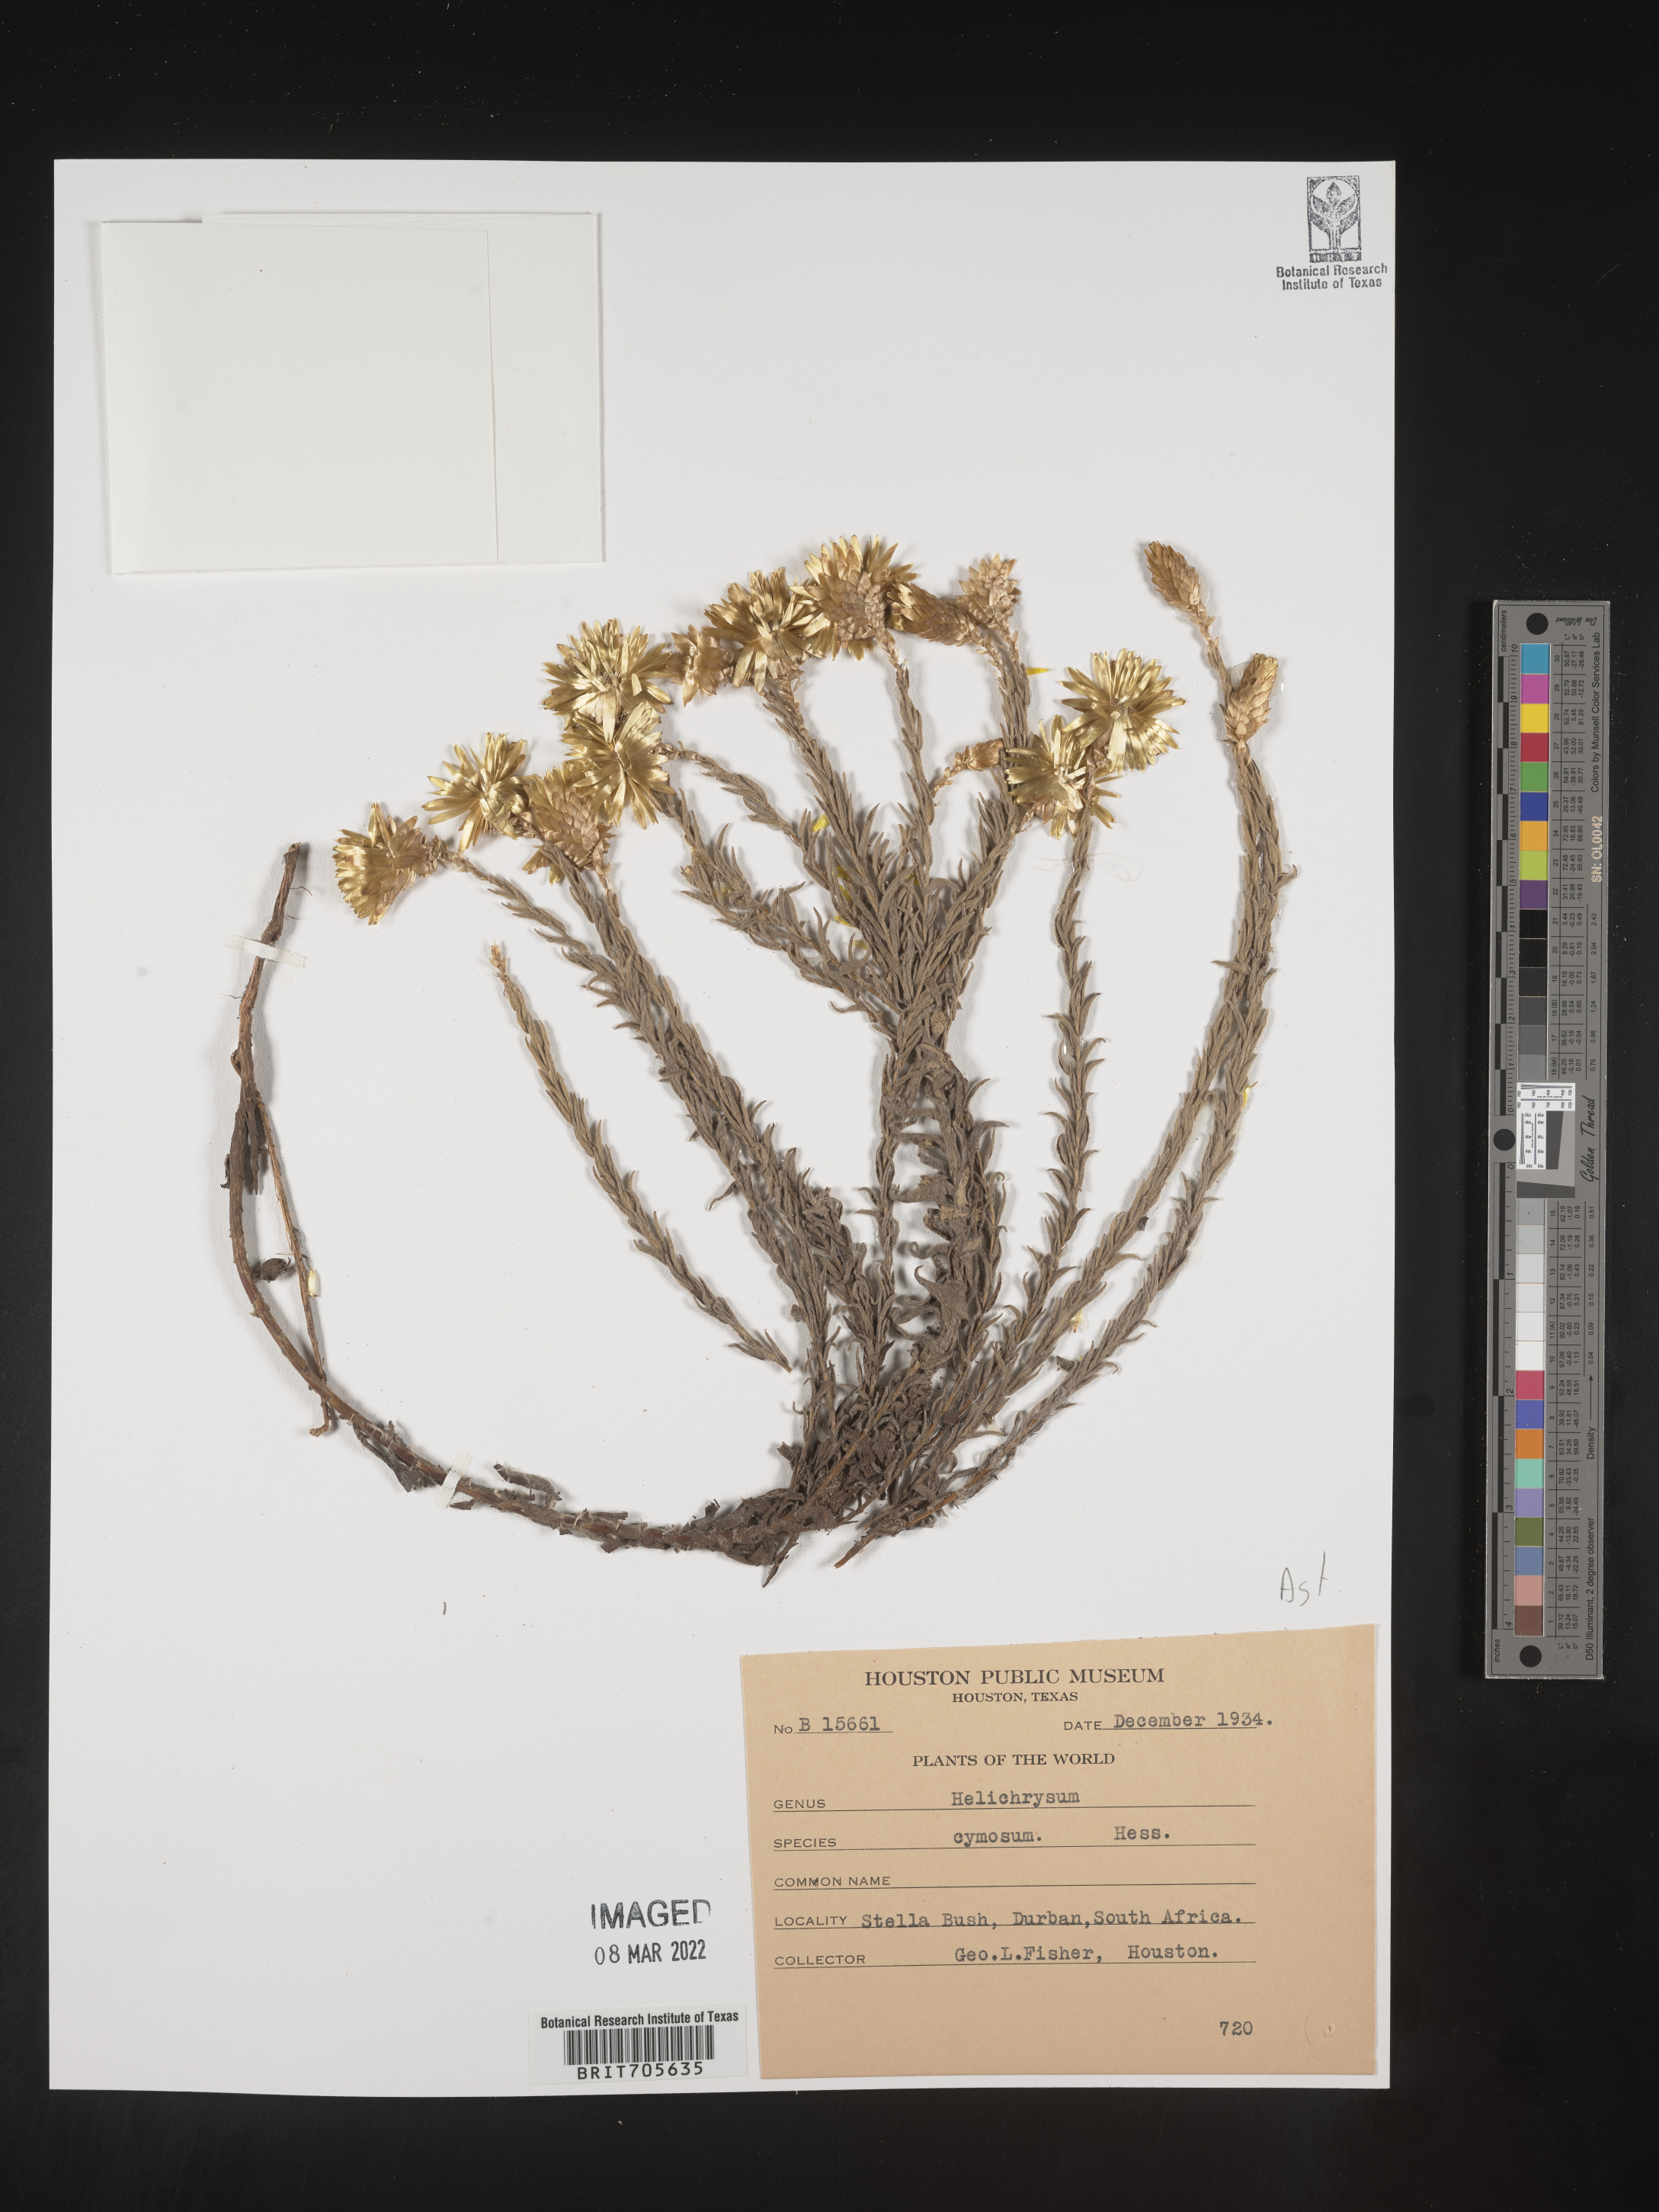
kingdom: Plantae
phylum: Tracheophyta
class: Magnoliopsida
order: Asterales
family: Asteraceae
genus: Helichrysum
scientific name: Helichrysum
